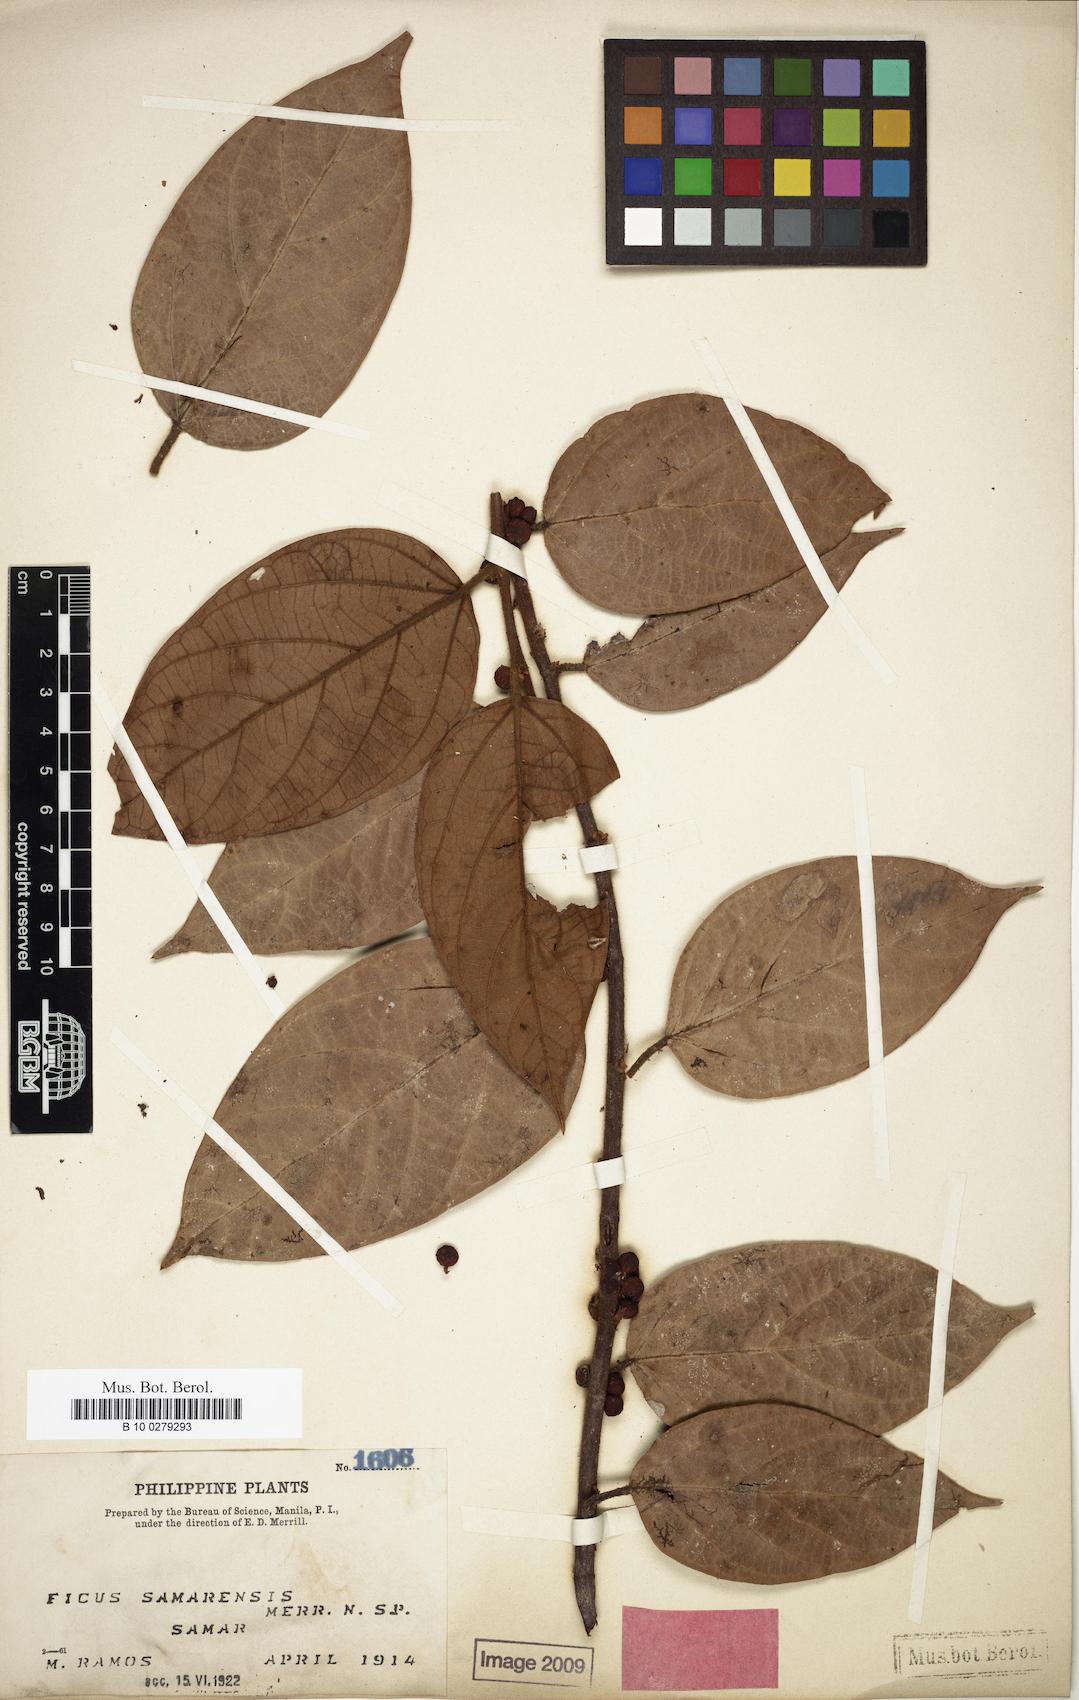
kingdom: Plantae
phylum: Tracheophyta
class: Magnoliopsida
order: Rosales
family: Moraceae
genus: Ficus
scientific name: Ficus recurva
